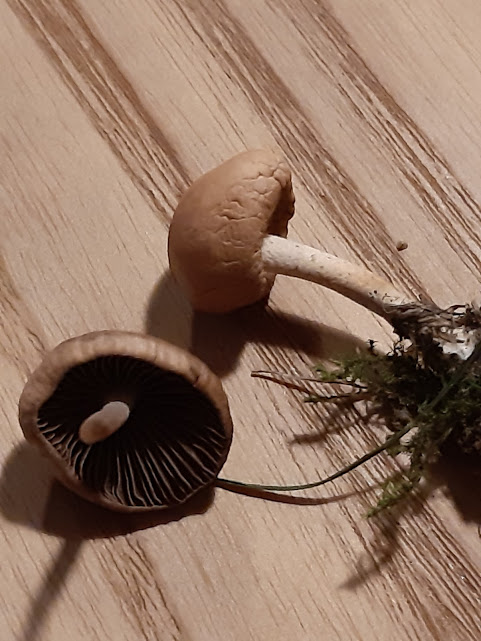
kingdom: Fungi
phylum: Basidiomycota
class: Agaricomycetes
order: Agaricales
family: Bolbitiaceae
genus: Panaeolina
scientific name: Panaeolina foenisecii
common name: høslætsvamp
